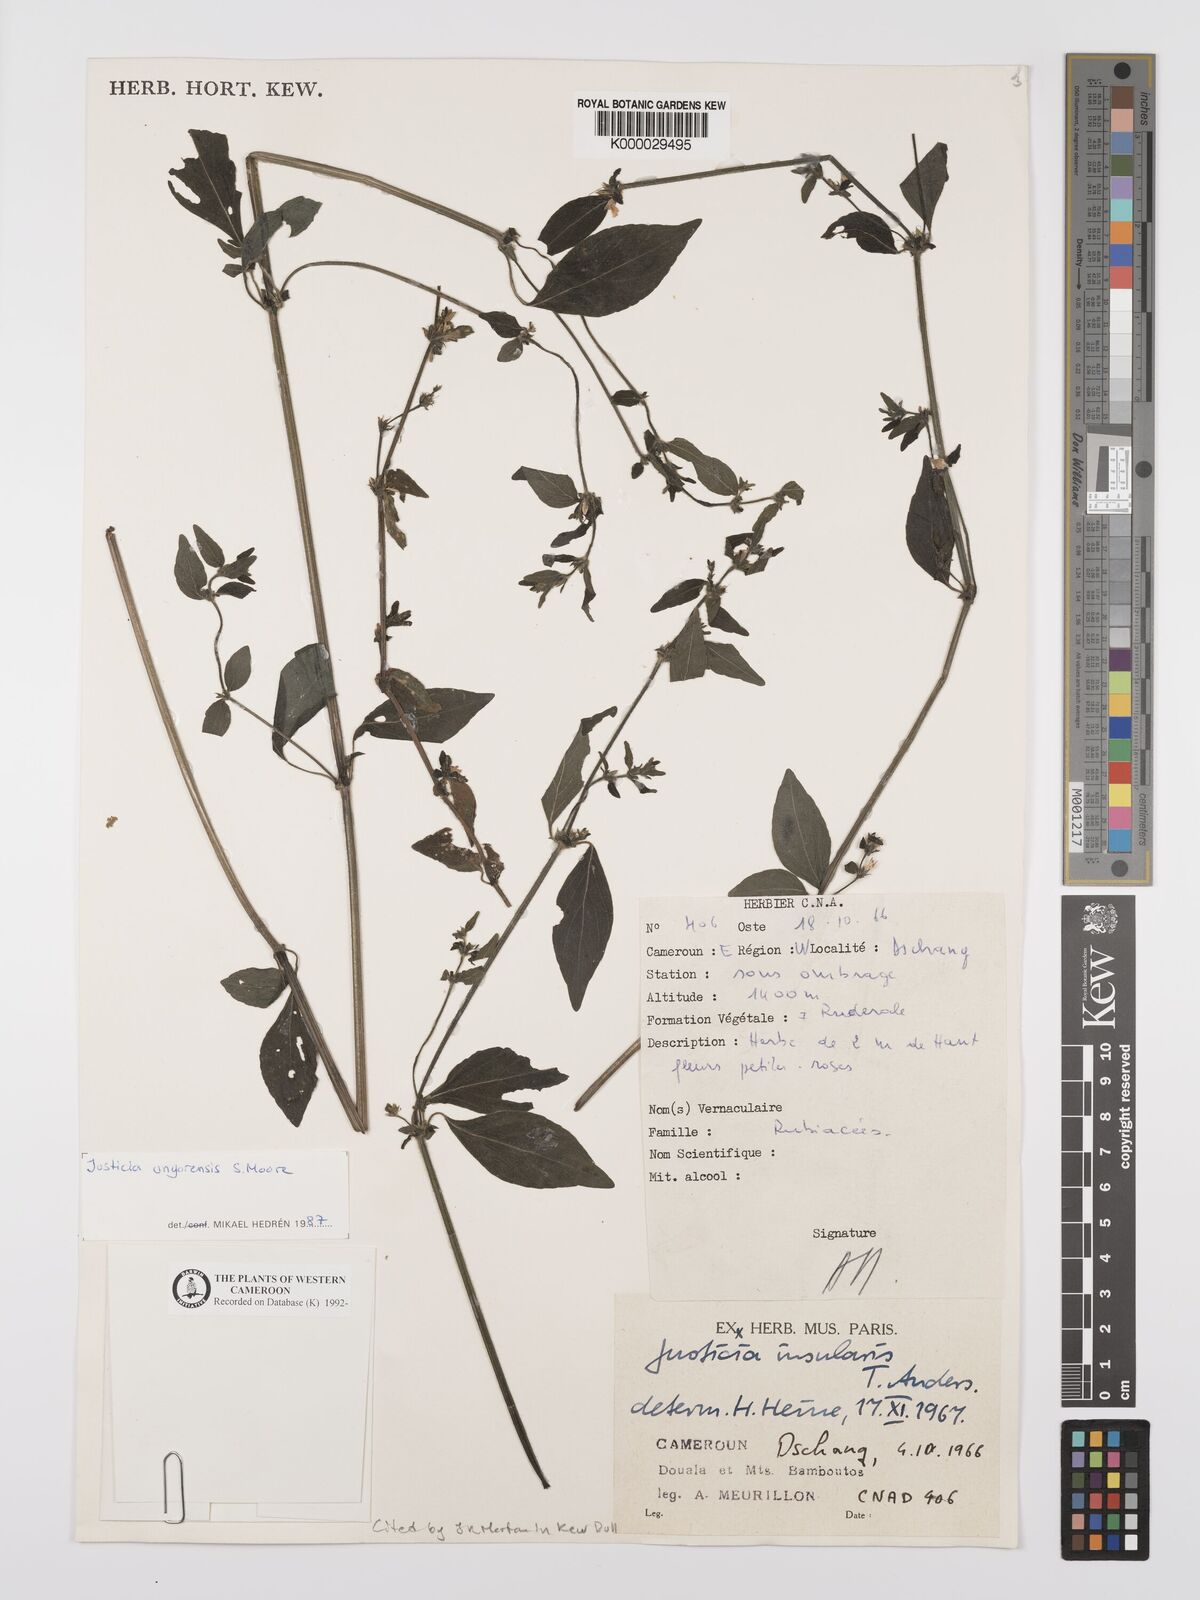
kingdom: Plantae
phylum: Tracheophyta
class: Magnoliopsida
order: Lamiales
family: Acanthaceae
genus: Justicia
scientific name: Justicia unyorensis
